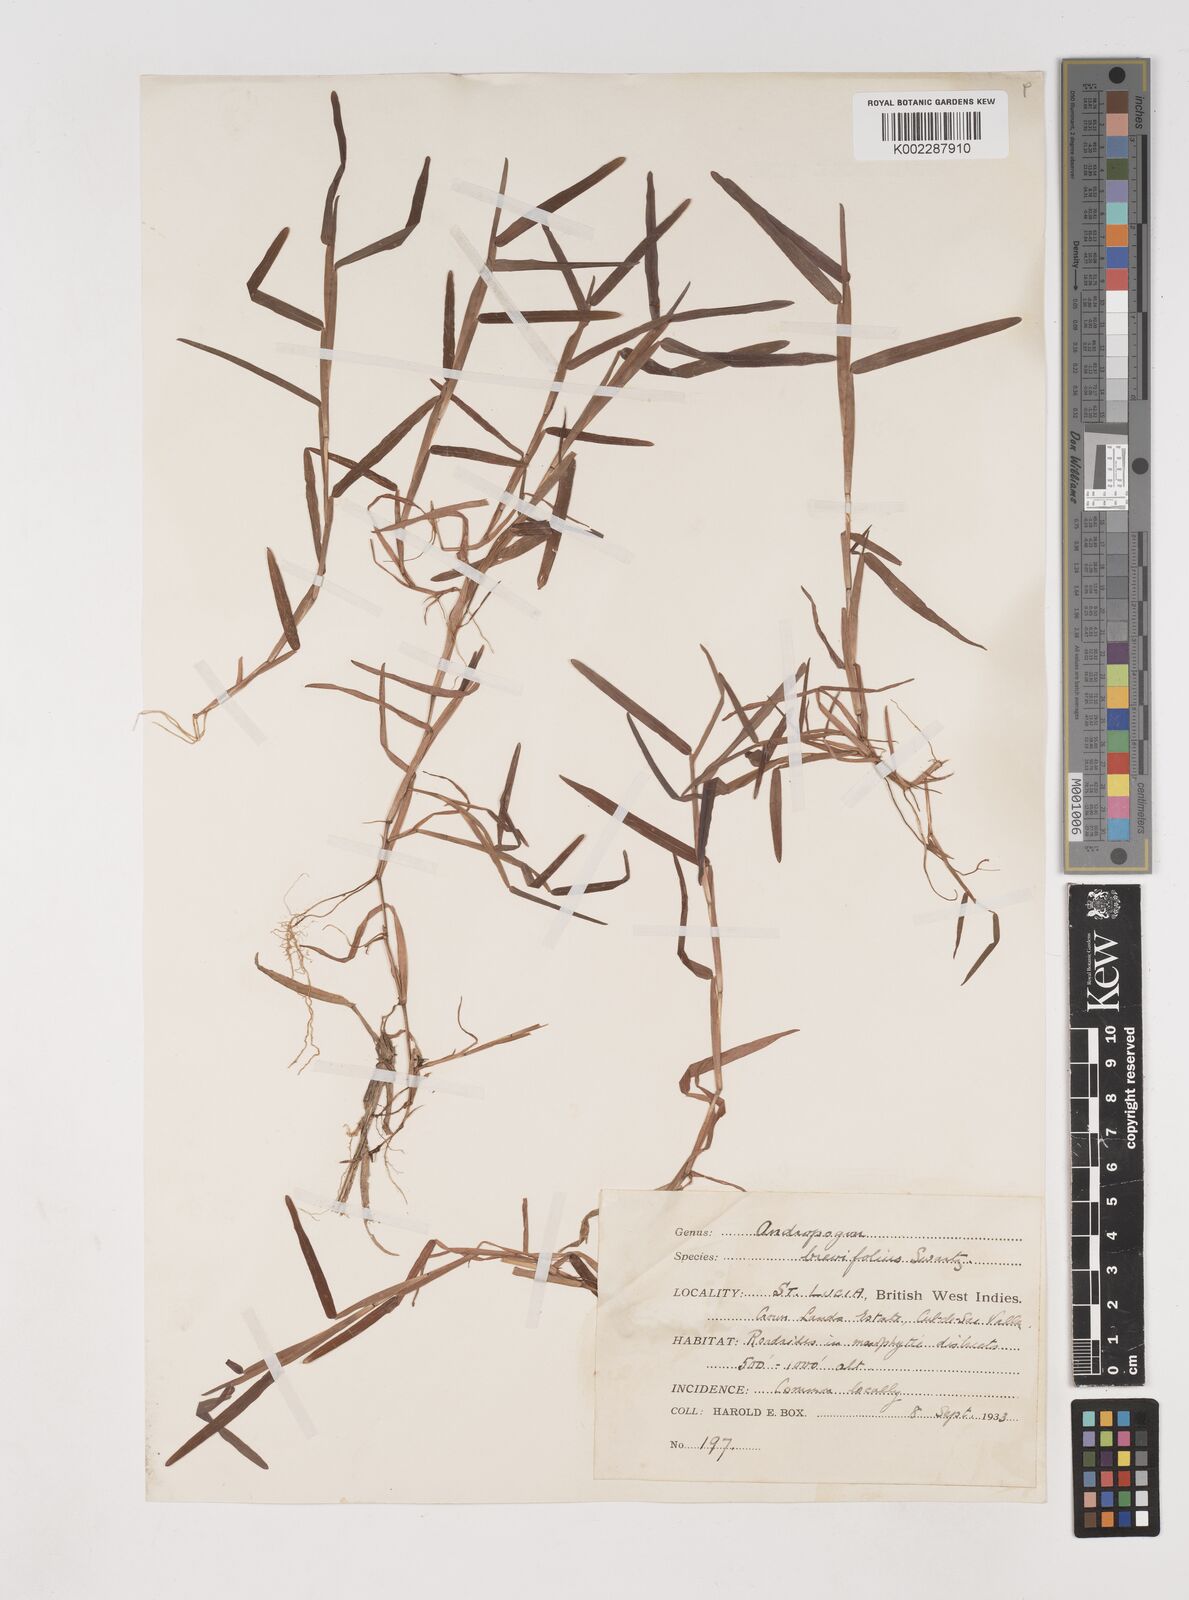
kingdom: Plantae
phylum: Tracheophyta
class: Liliopsida
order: Poales
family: Poaceae
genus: Schizachyrium
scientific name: Schizachyrium brevifolium
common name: Serillo dulce
